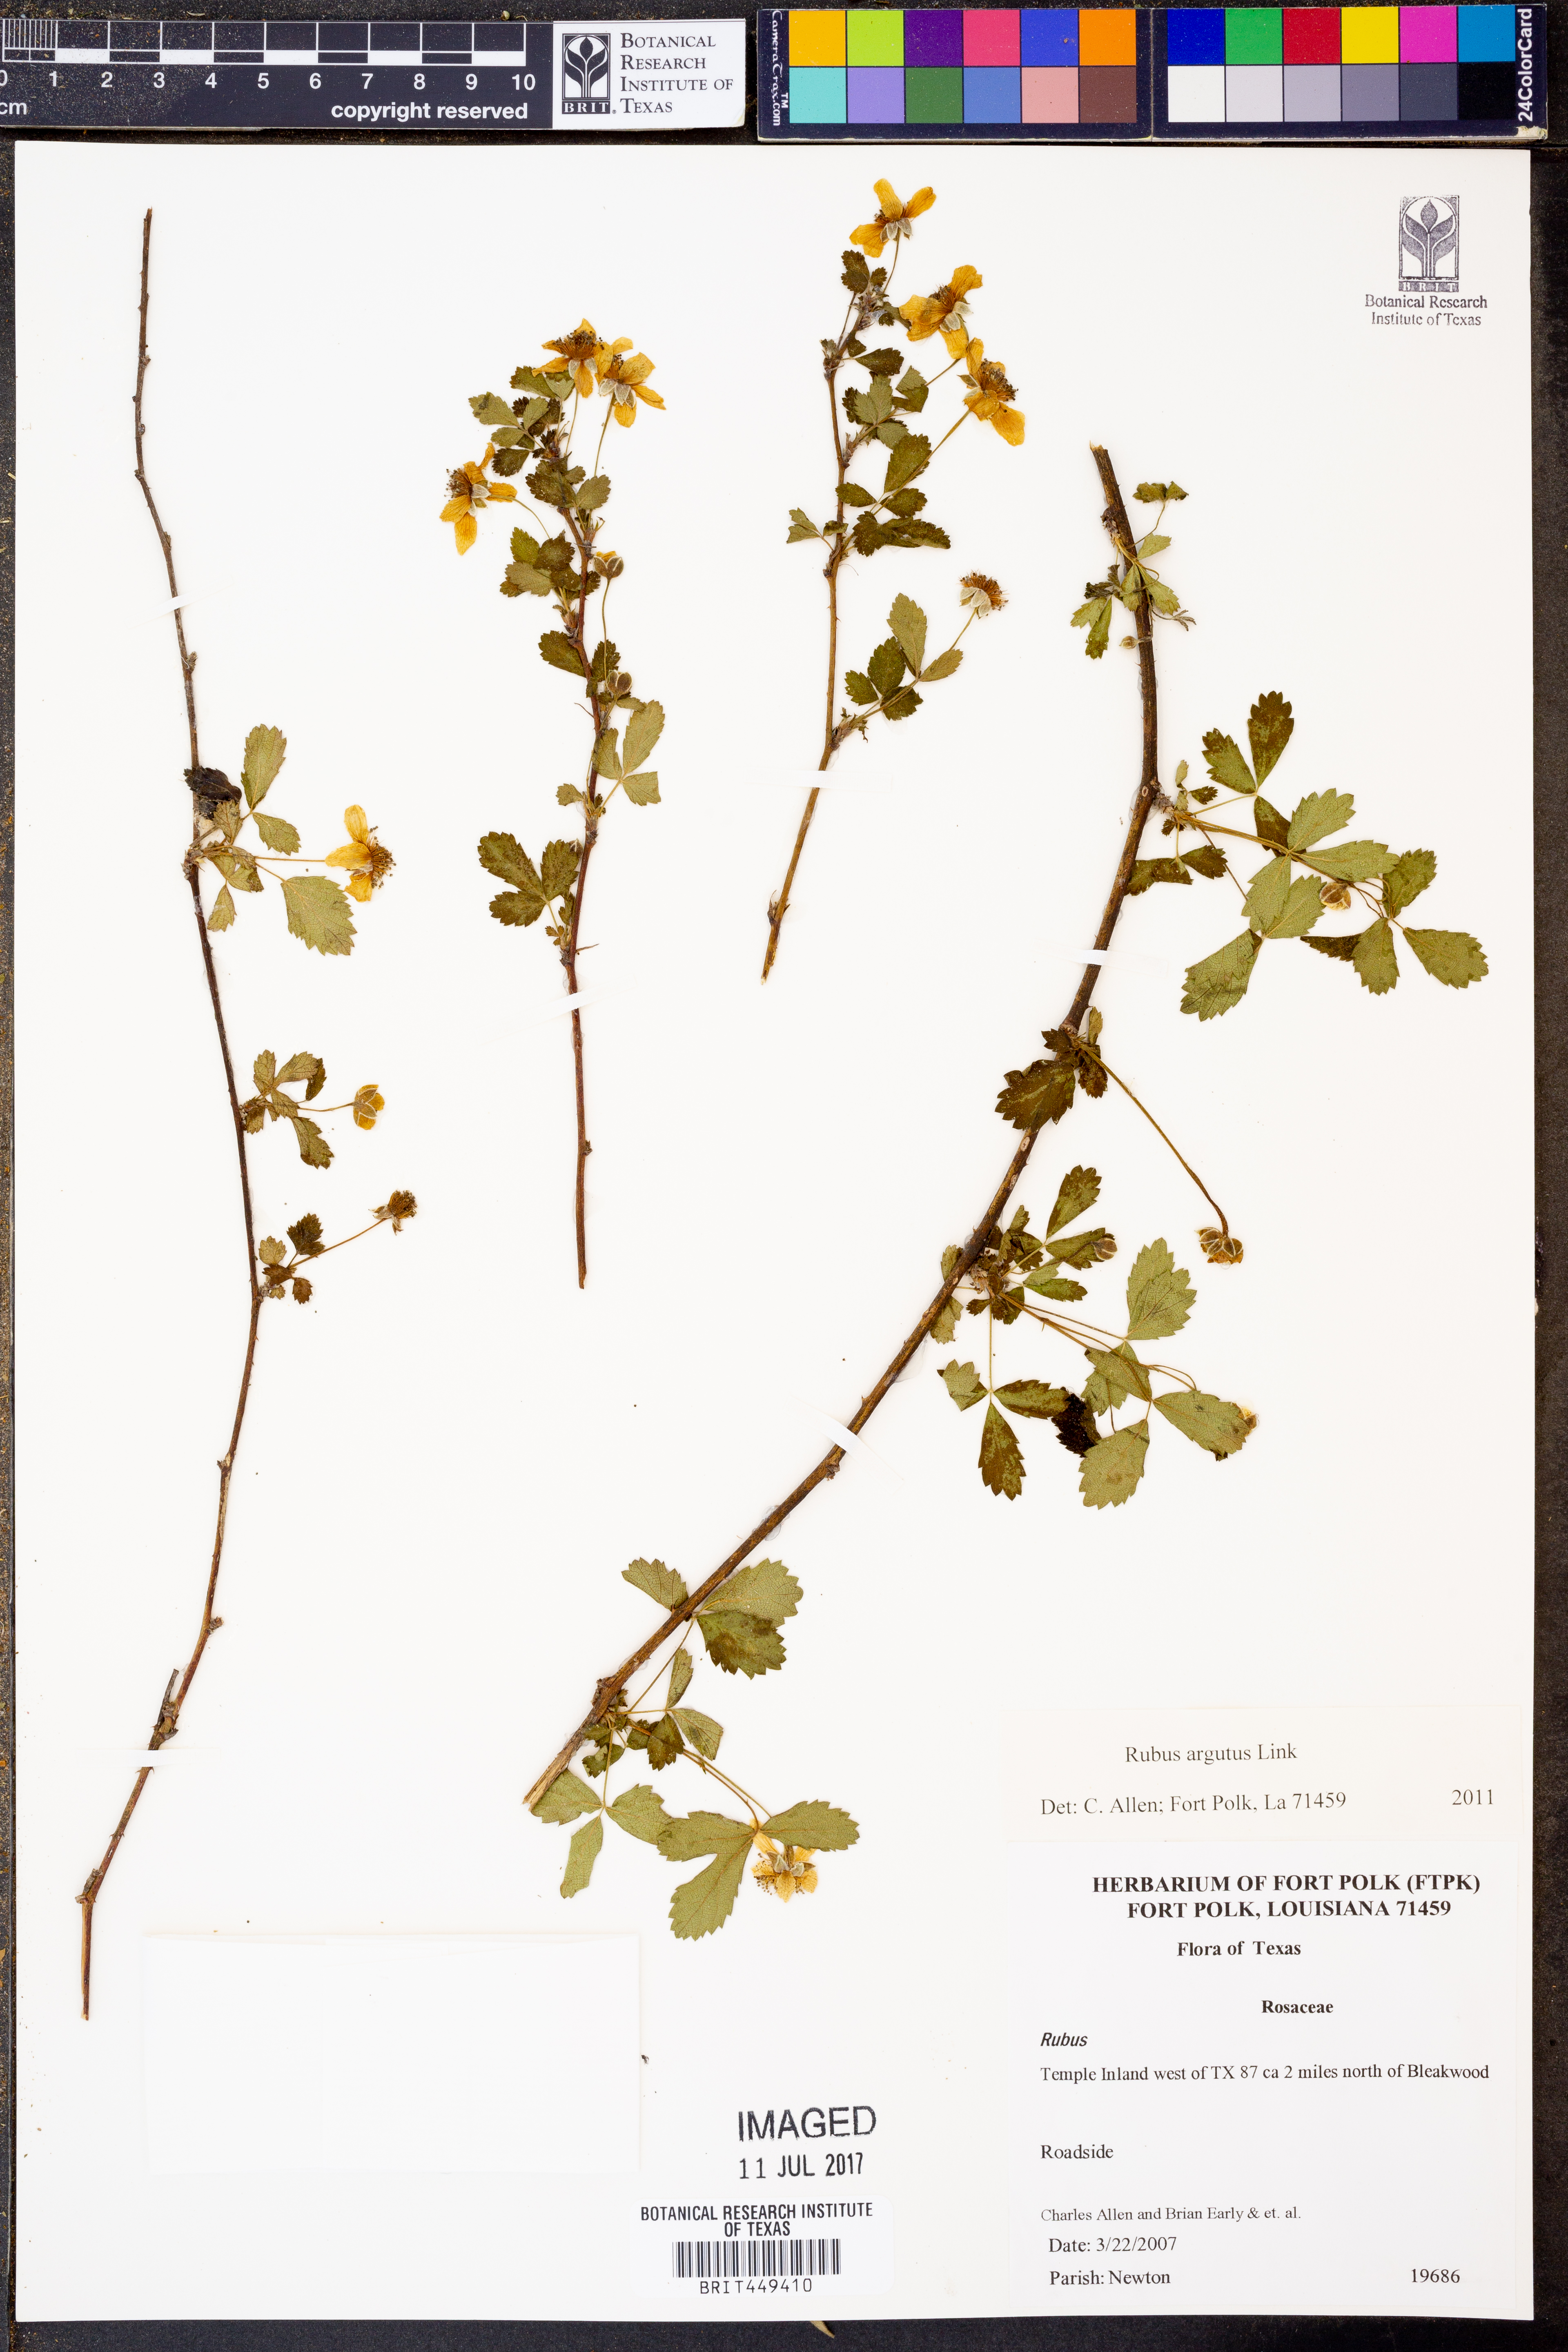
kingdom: Plantae
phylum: Tracheophyta
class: Magnoliopsida
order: Rosales
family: Rosaceae
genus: Rubus
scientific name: Rubus argutus
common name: Sawtooth blackberry
